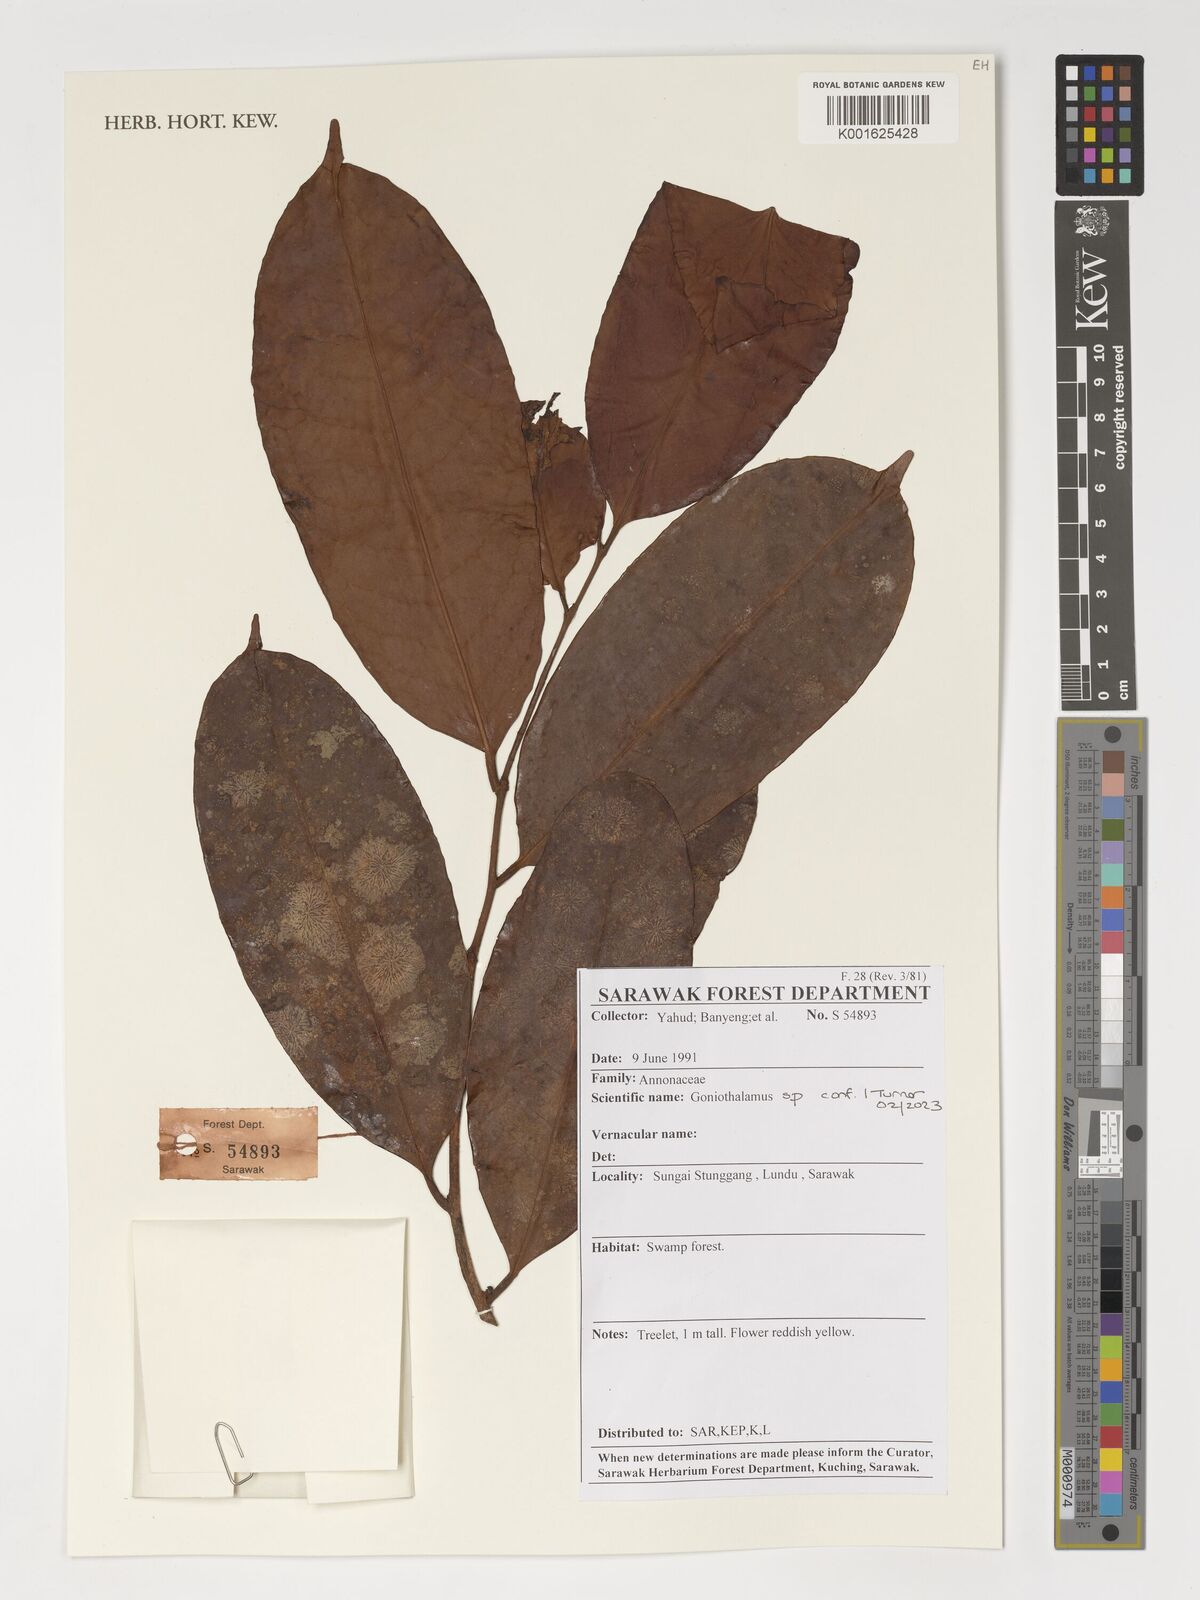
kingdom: Plantae
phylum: Tracheophyta
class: Magnoliopsida
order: Magnoliales
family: Annonaceae
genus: Goniothalamus
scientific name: Goniothalamus
